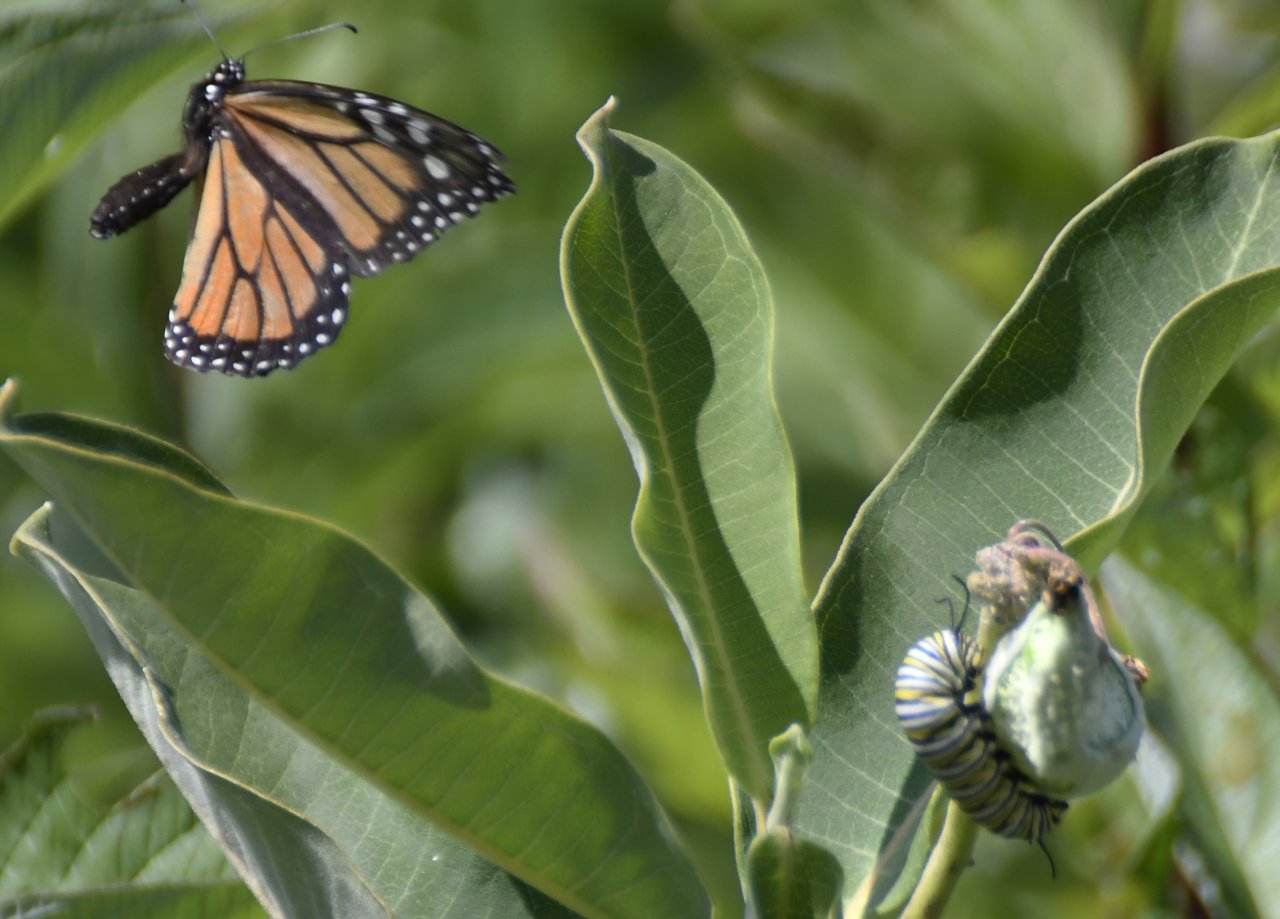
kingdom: Animalia
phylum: Arthropoda
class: Insecta
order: Lepidoptera
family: Nymphalidae
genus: Danaus
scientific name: Danaus plexippus
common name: Monarch
